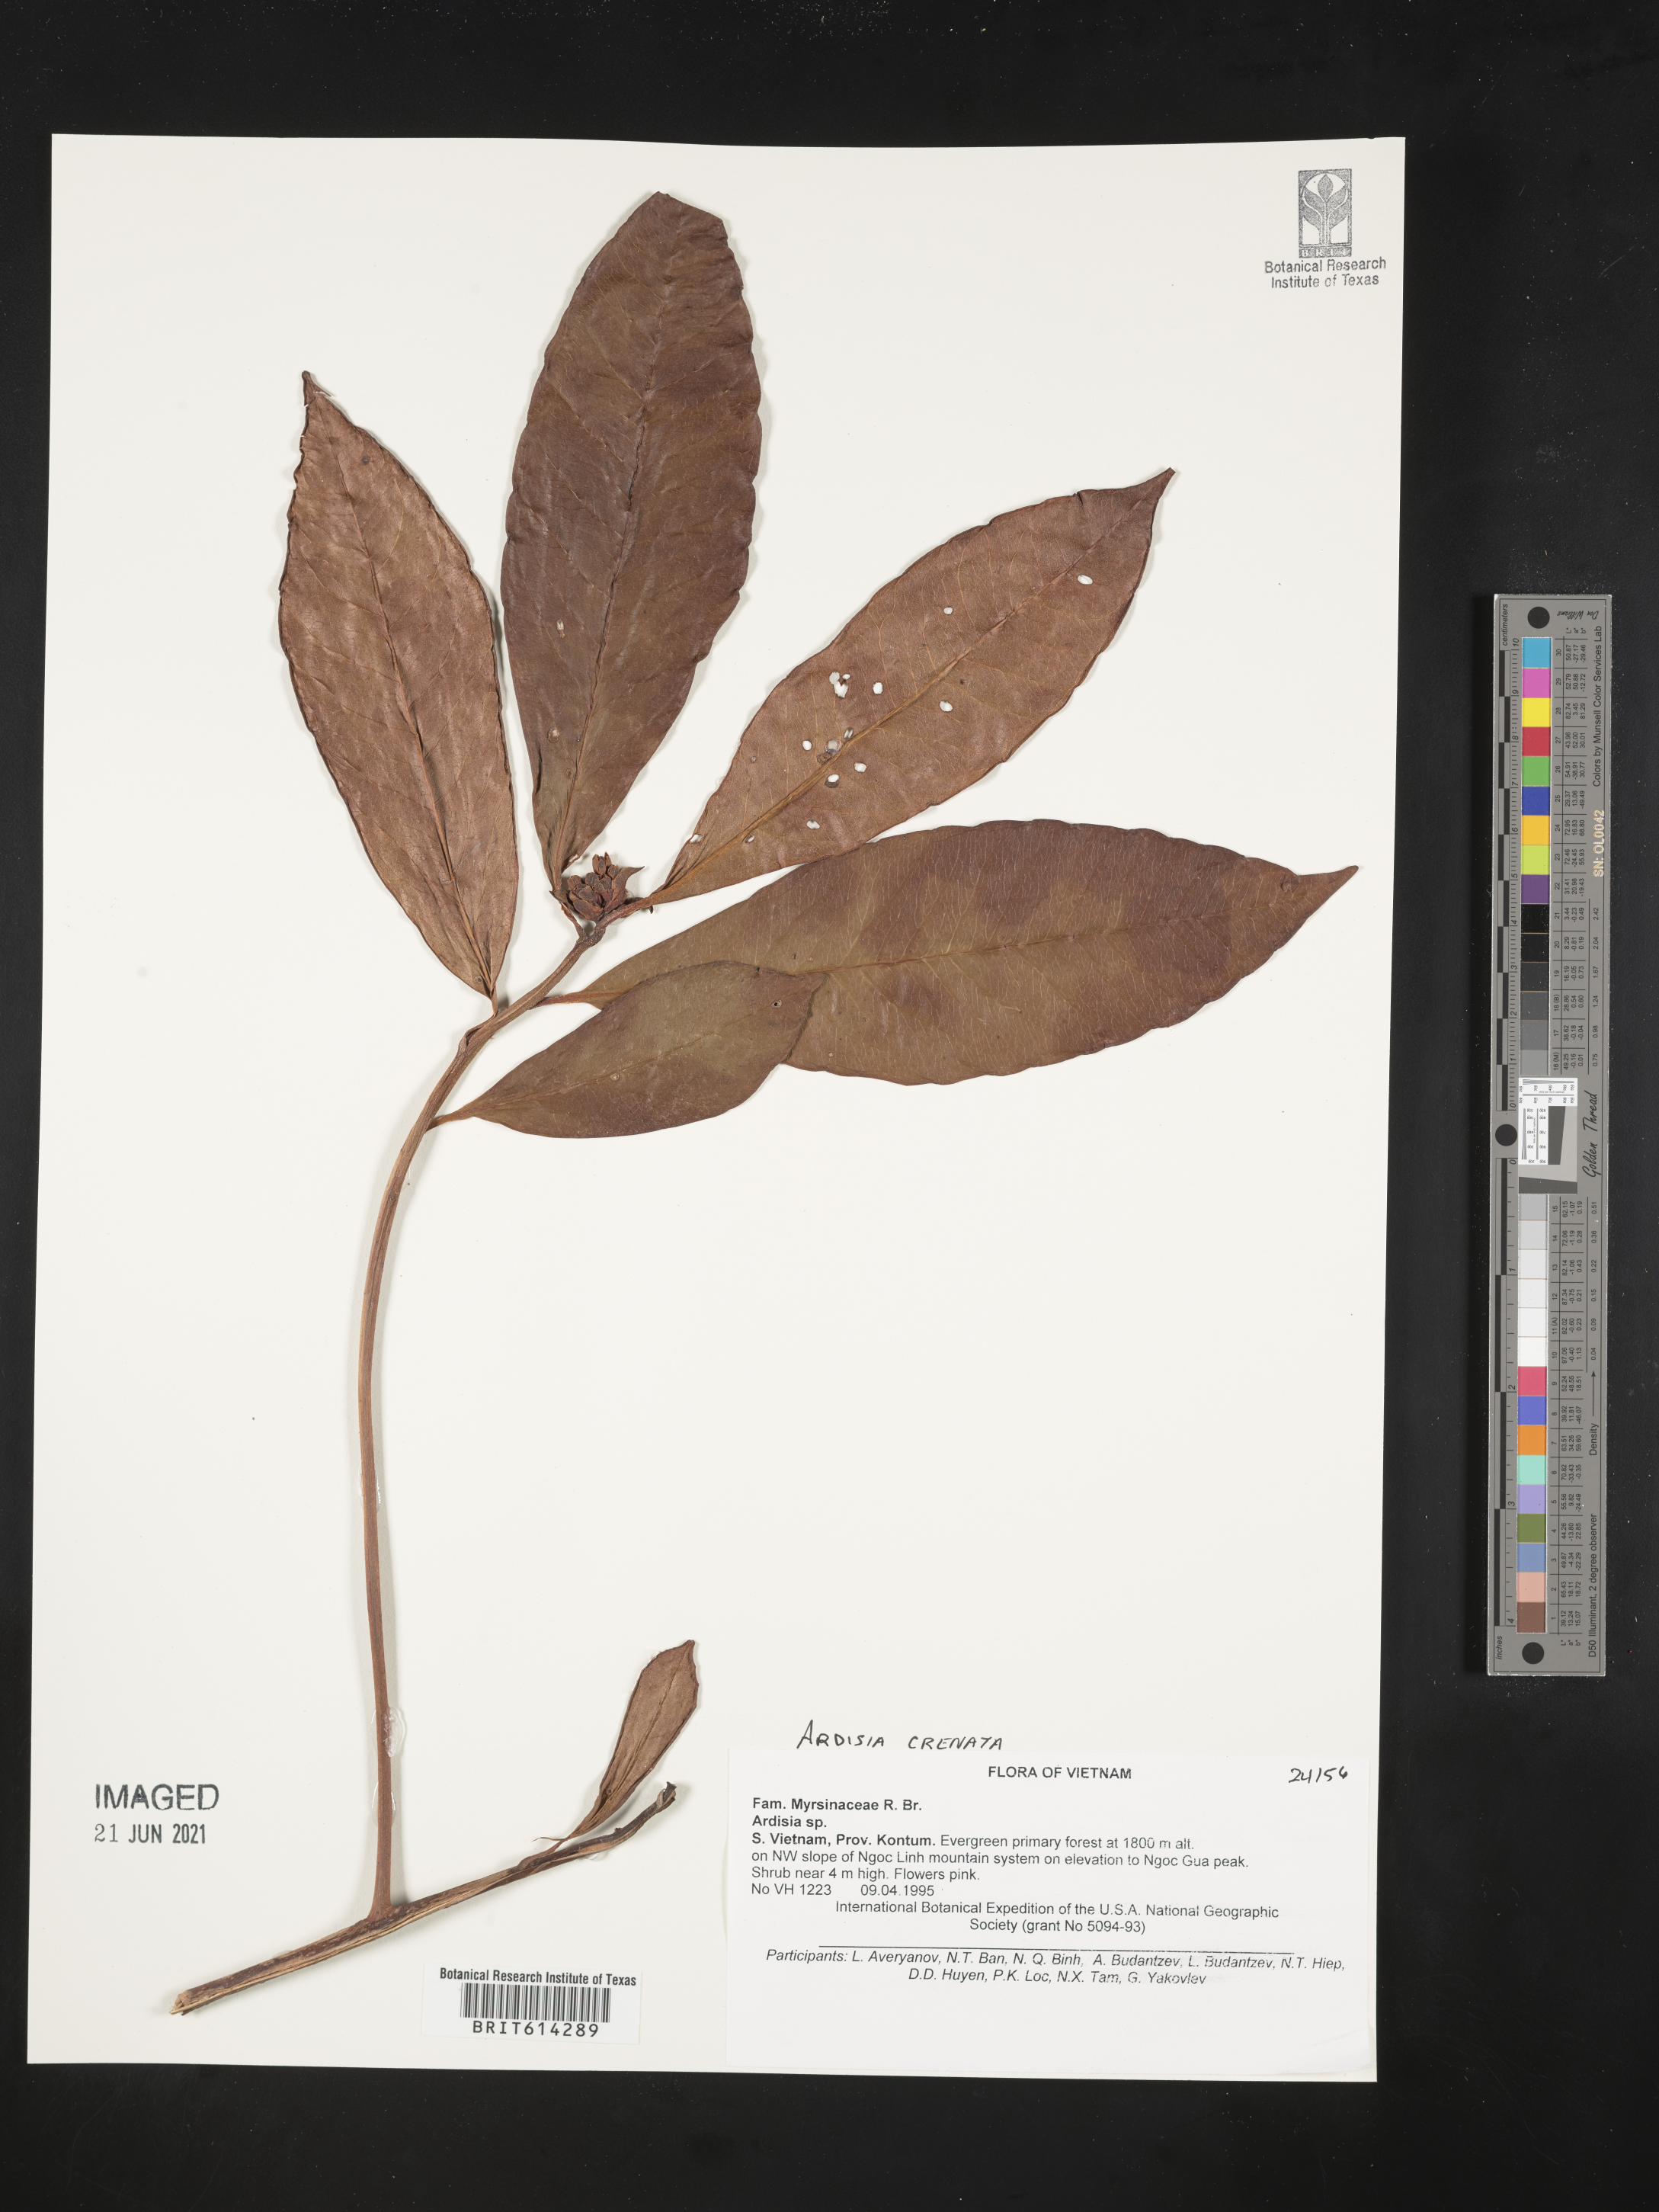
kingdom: Plantae
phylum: Tracheophyta
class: Magnoliopsida
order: Ericales
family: Primulaceae
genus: Ardisia
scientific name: Ardisia crenata
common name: Hen's eyes
